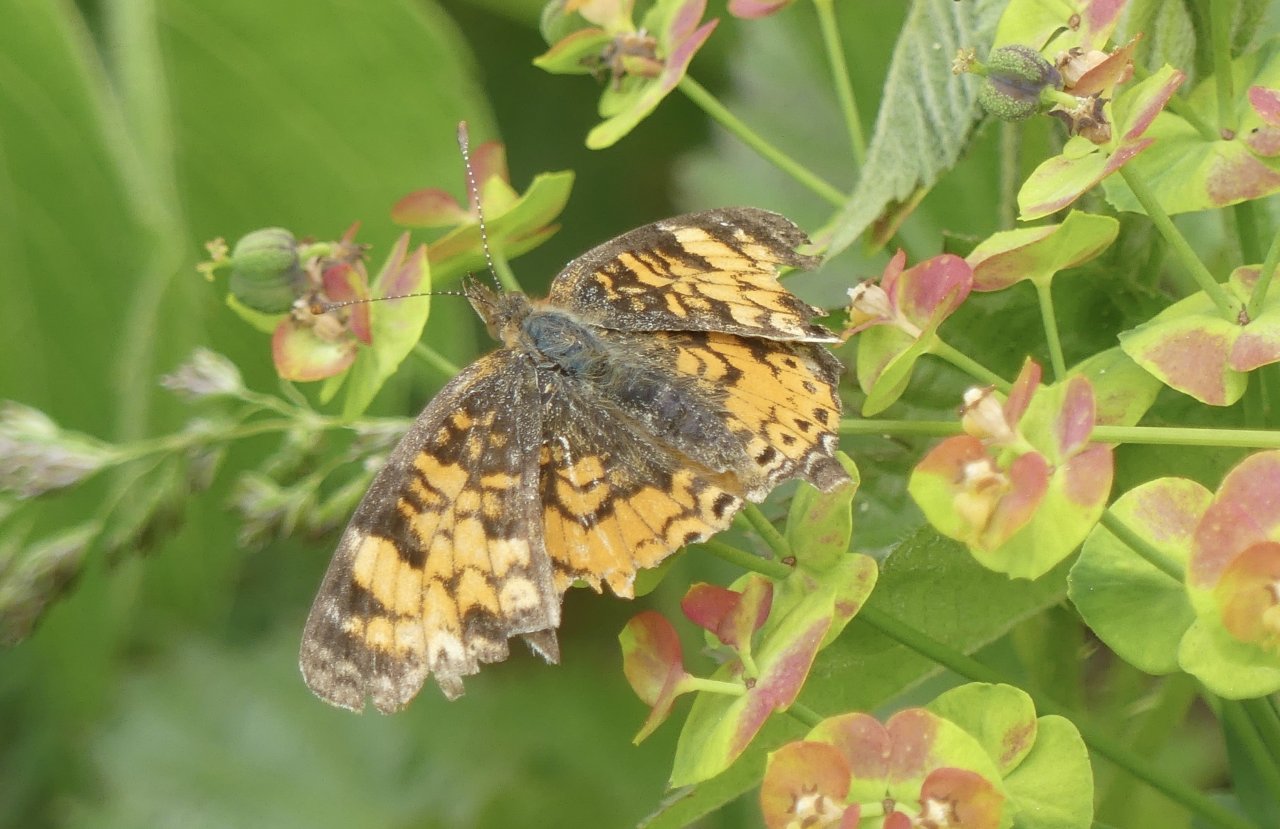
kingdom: Animalia
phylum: Arthropoda
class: Insecta
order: Lepidoptera
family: Nymphalidae
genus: Phyciodes
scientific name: Phyciodes tharos
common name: Pearl Crescent
